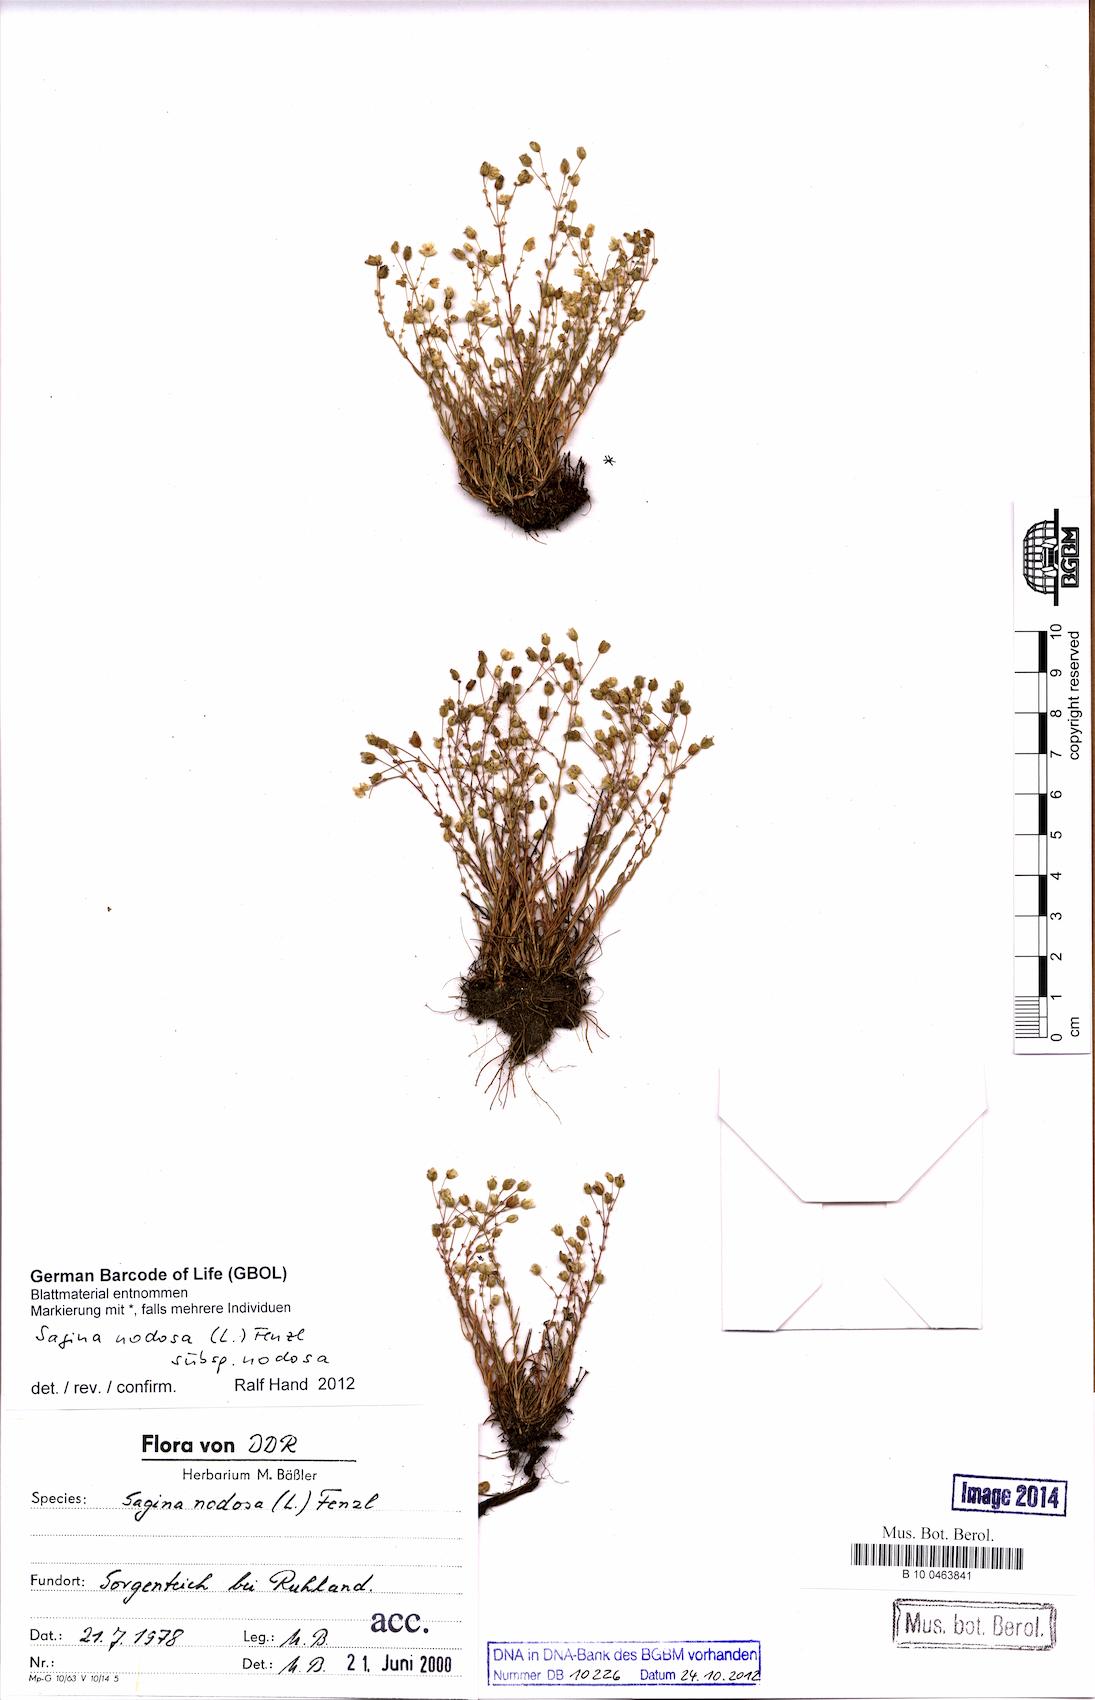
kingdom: Plantae
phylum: Tracheophyta
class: Magnoliopsida
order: Caryophyllales
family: Caryophyllaceae
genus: Sagina
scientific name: Sagina nodosa
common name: Knotted pearlwort
